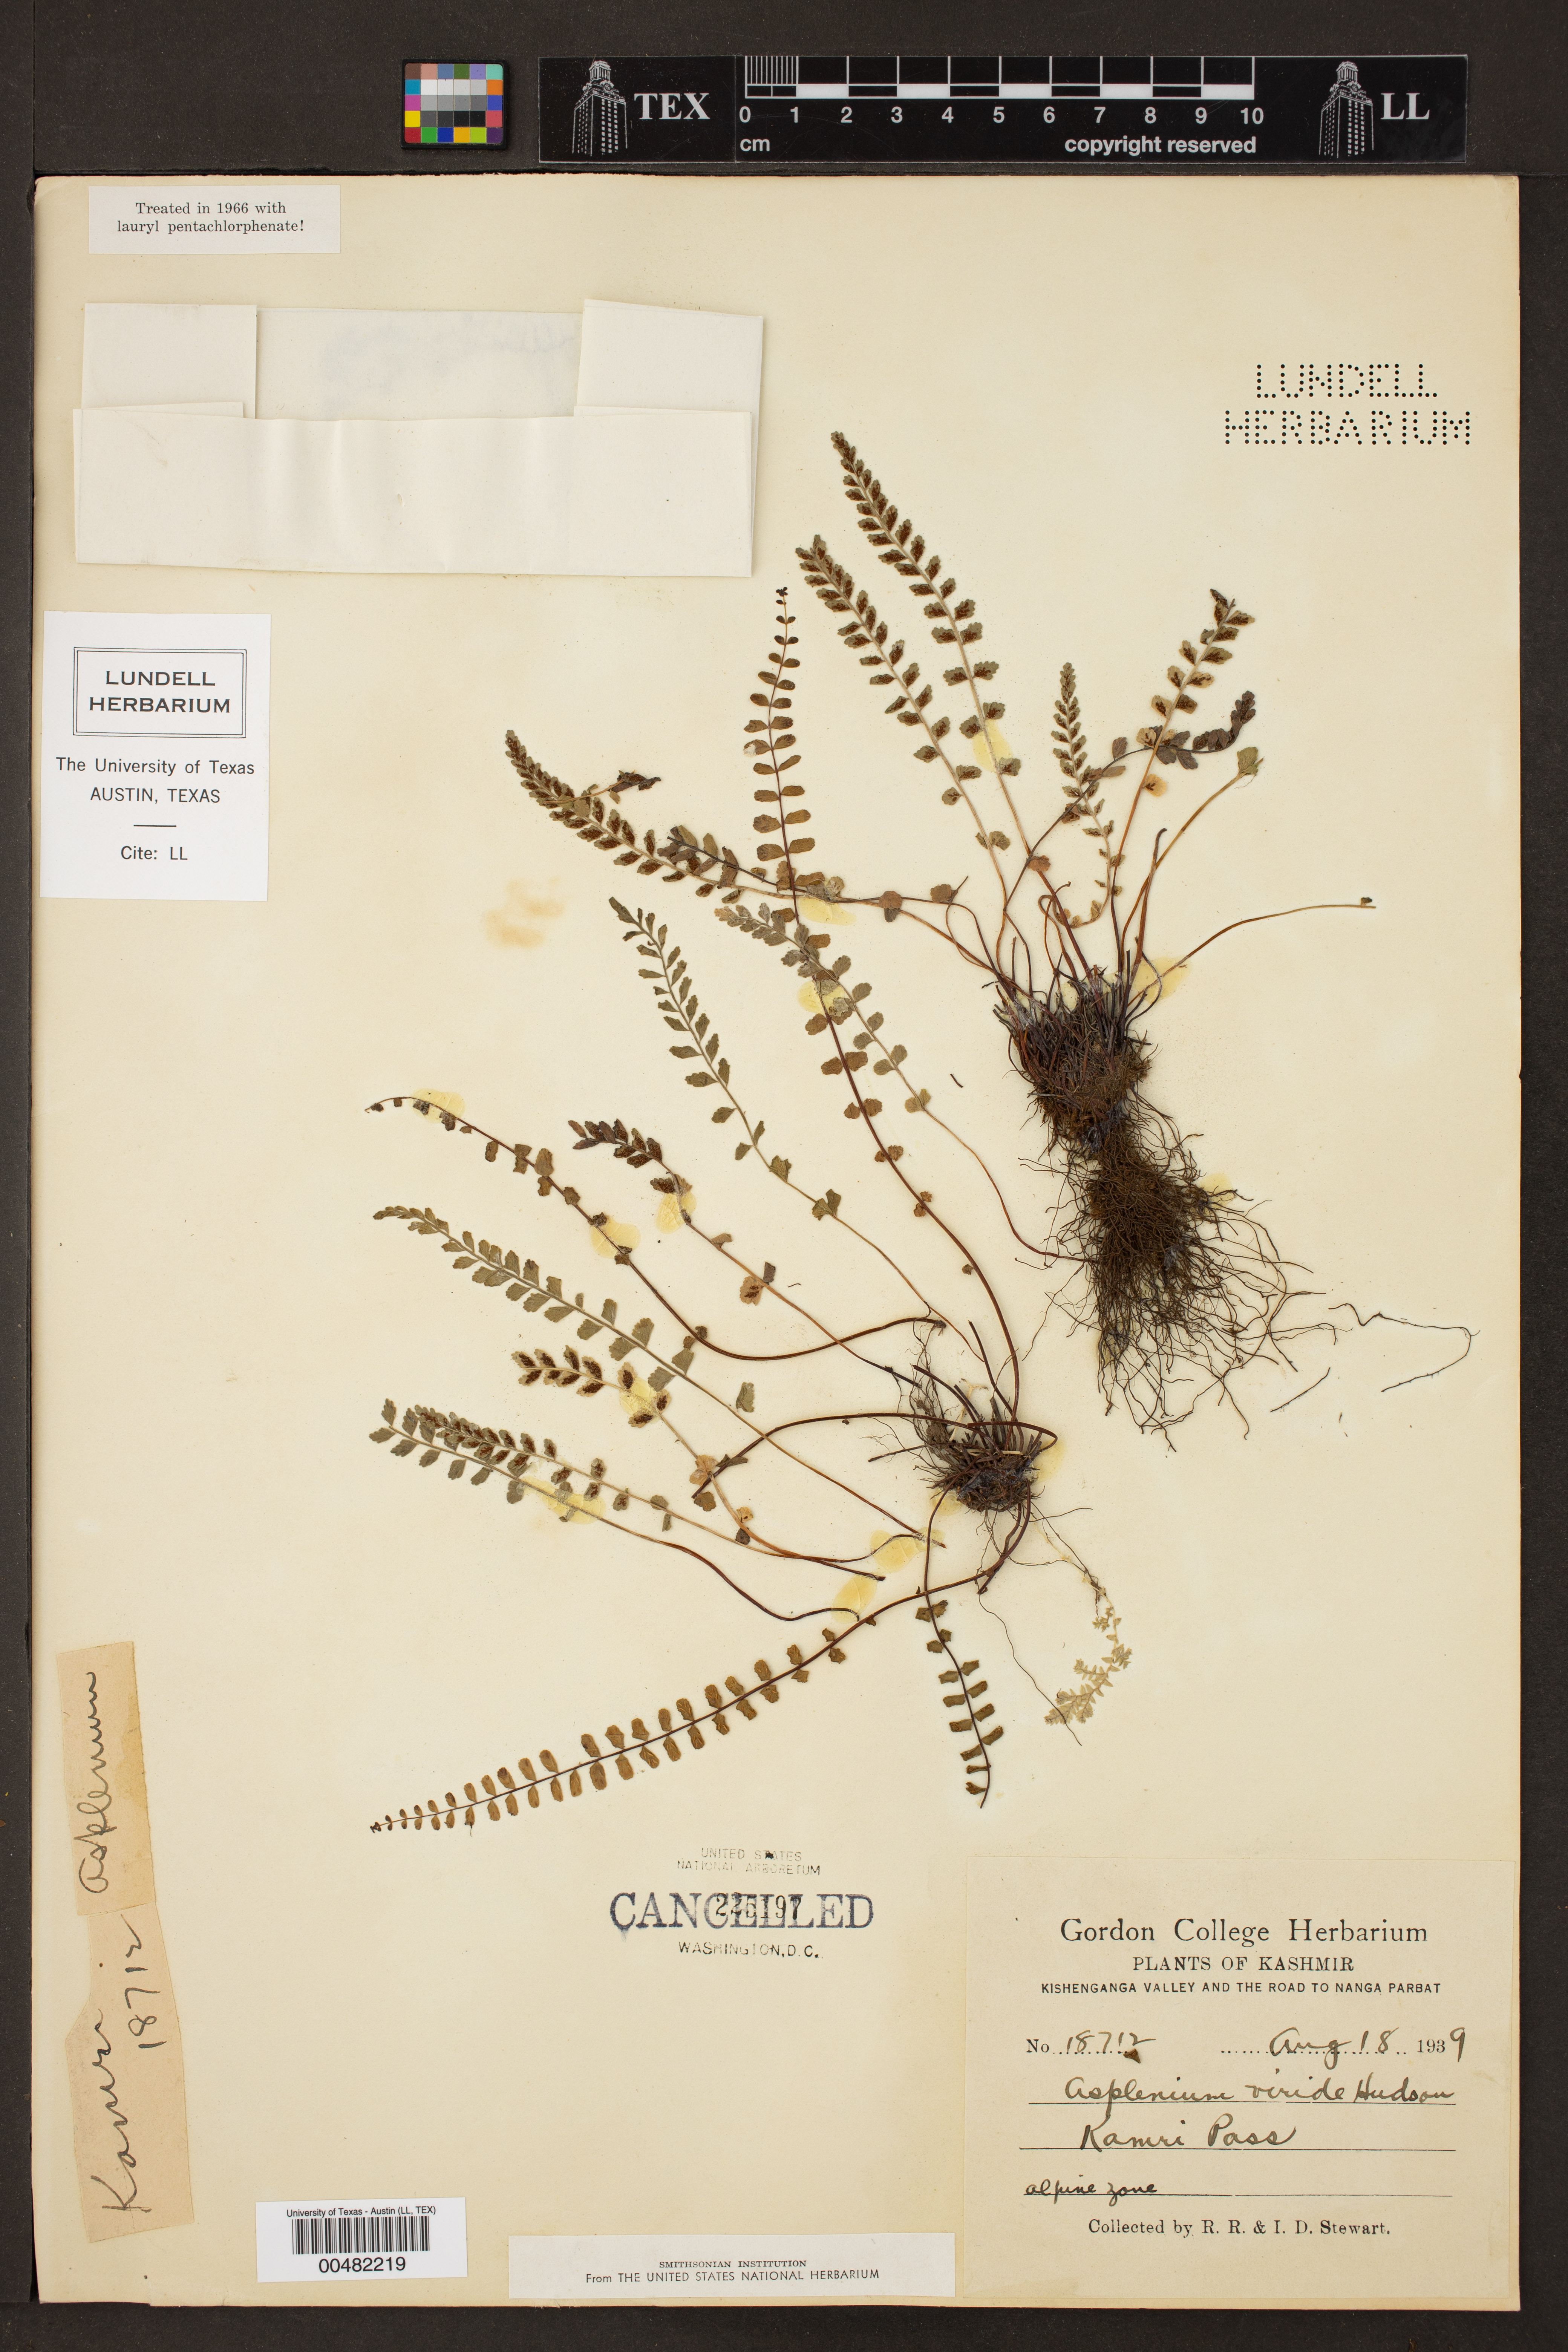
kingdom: Plantae
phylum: Tracheophyta
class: Polypodiopsida
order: Polypodiales
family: Aspleniaceae
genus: Asplenium
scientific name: Asplenium viride
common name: Green spleenwort
